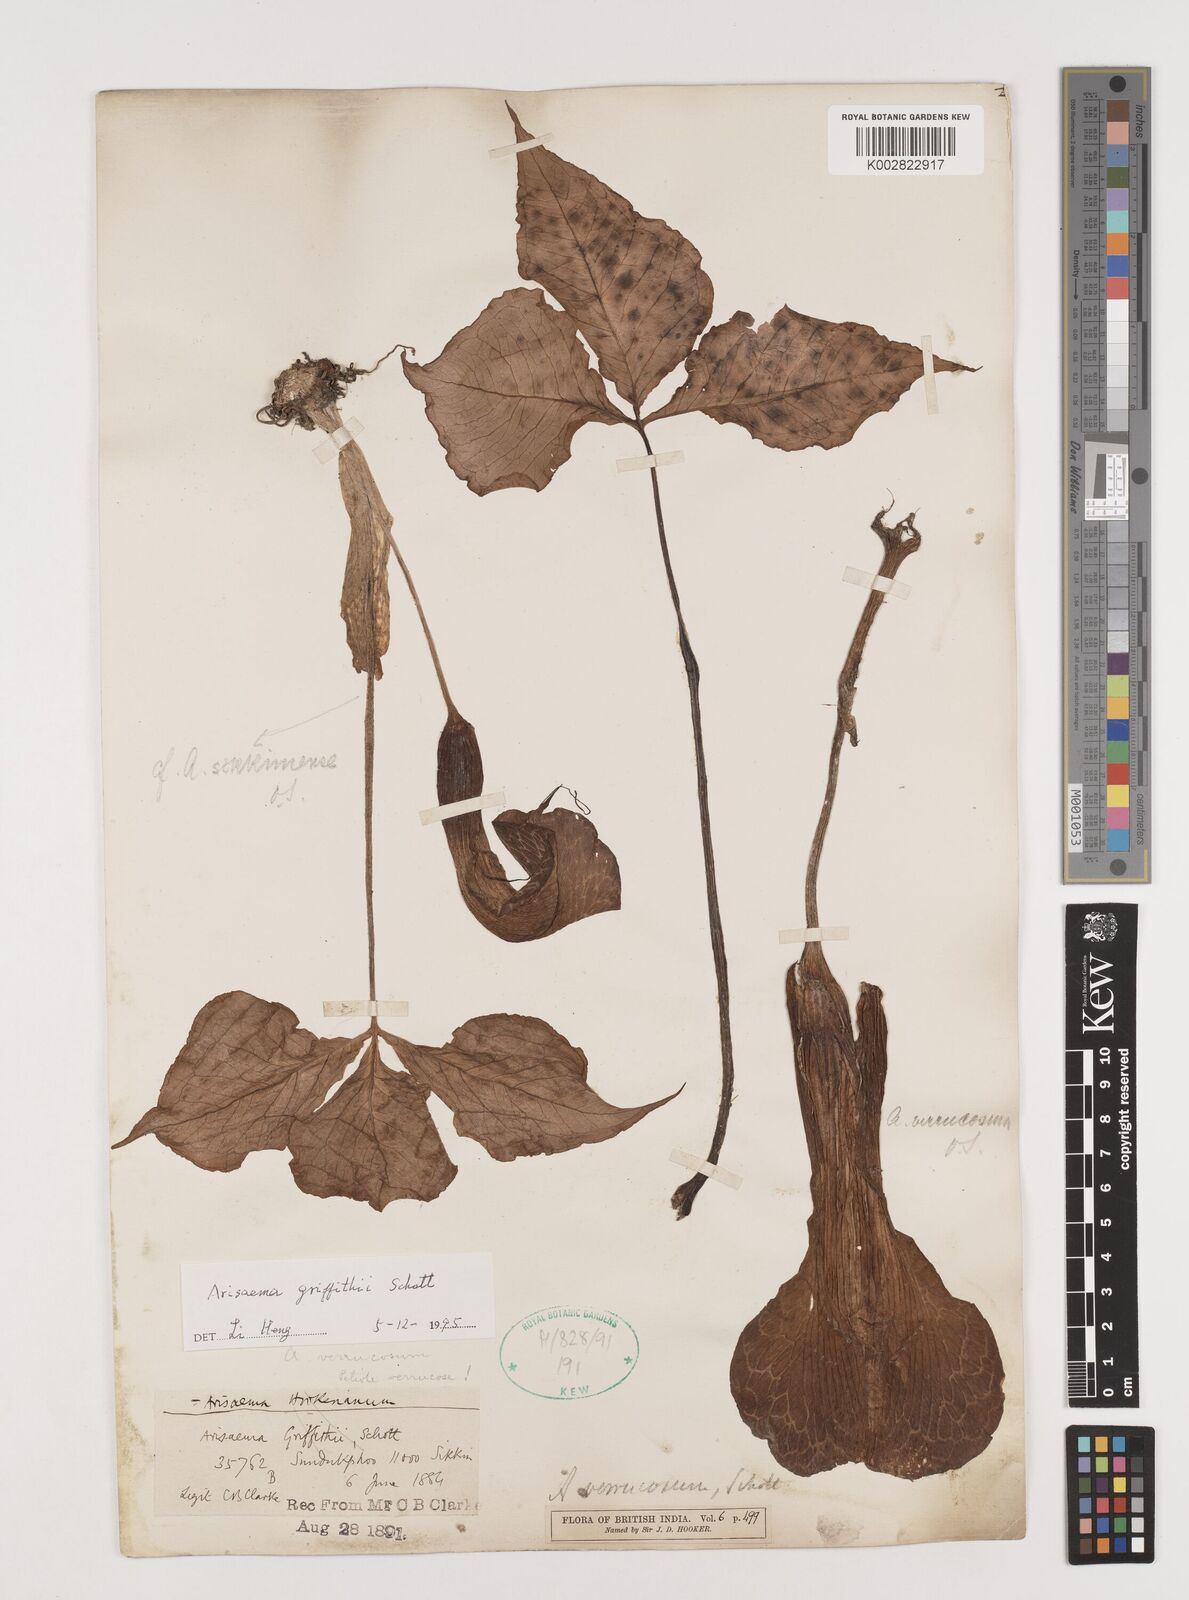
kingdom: Plantae
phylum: Tracheophyta
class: Liliopsida
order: Alismatales
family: Araceae
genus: Arisaema
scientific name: Arisaema griffithii
